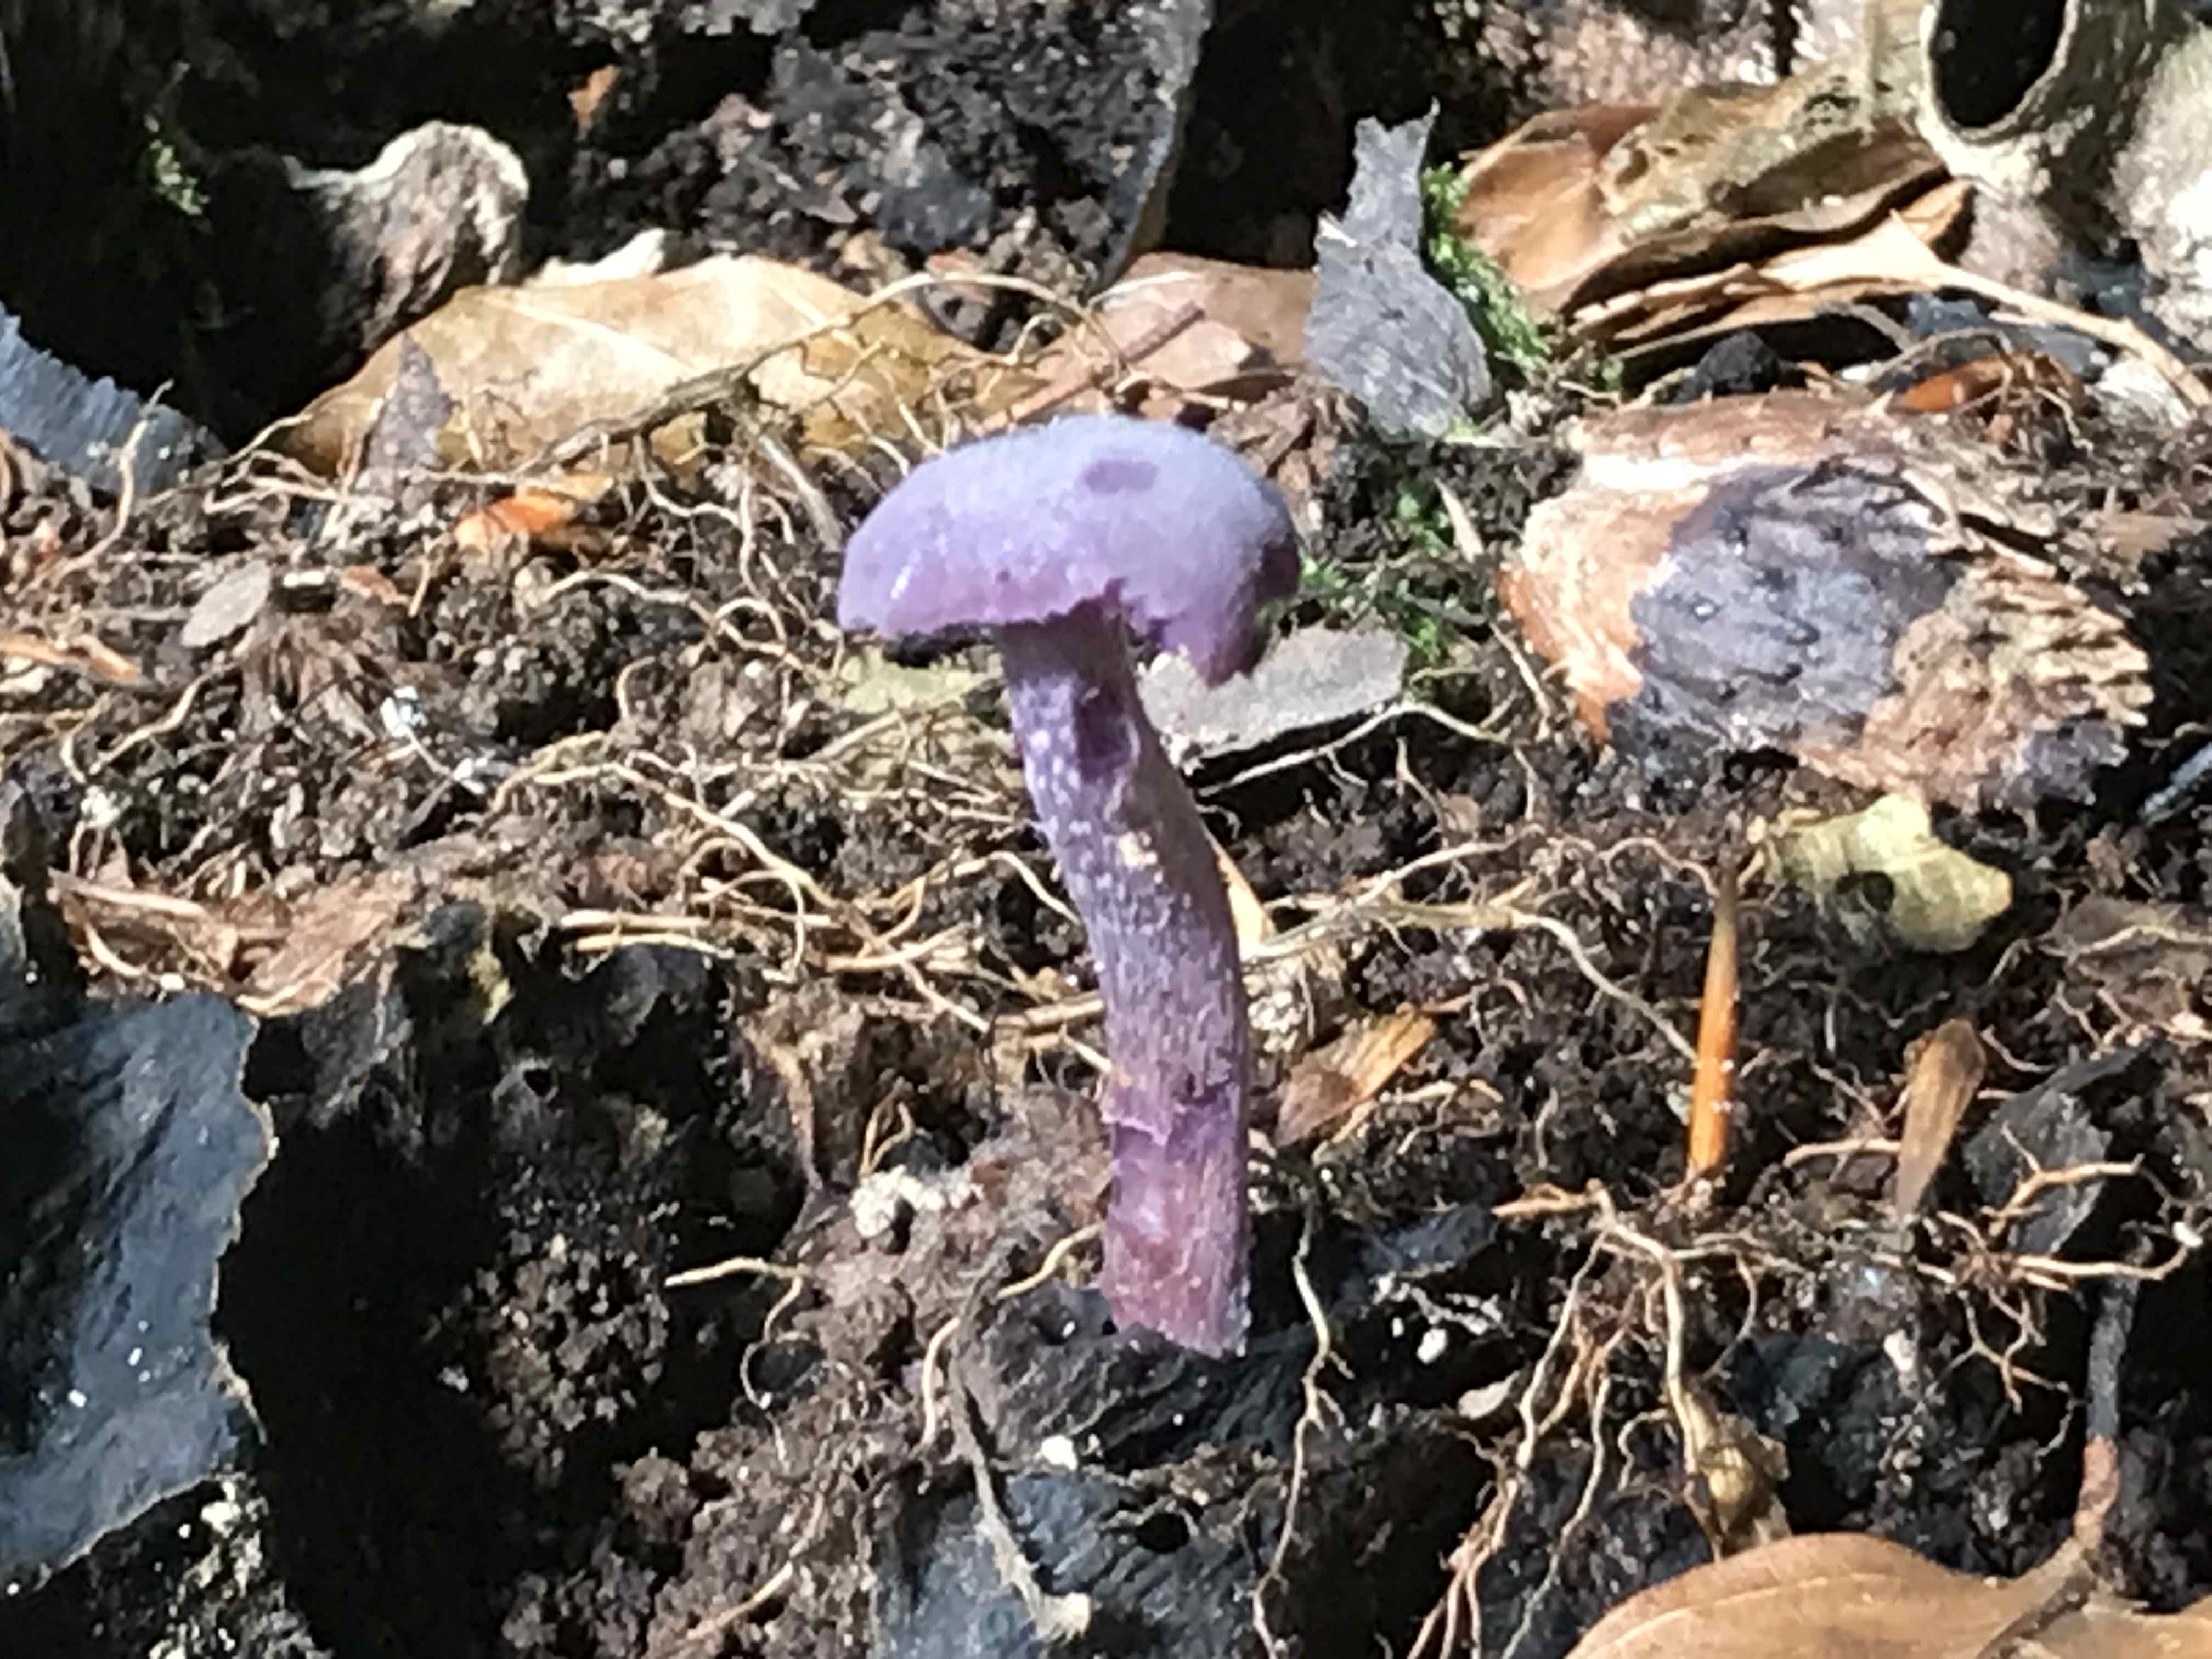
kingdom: Fungi
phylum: Basidiomycota
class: Agaricomycetes
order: Agaricales
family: Hydnangiaceae
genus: Laccaria
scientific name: Laccaria amethystina
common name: violet ametysthat
